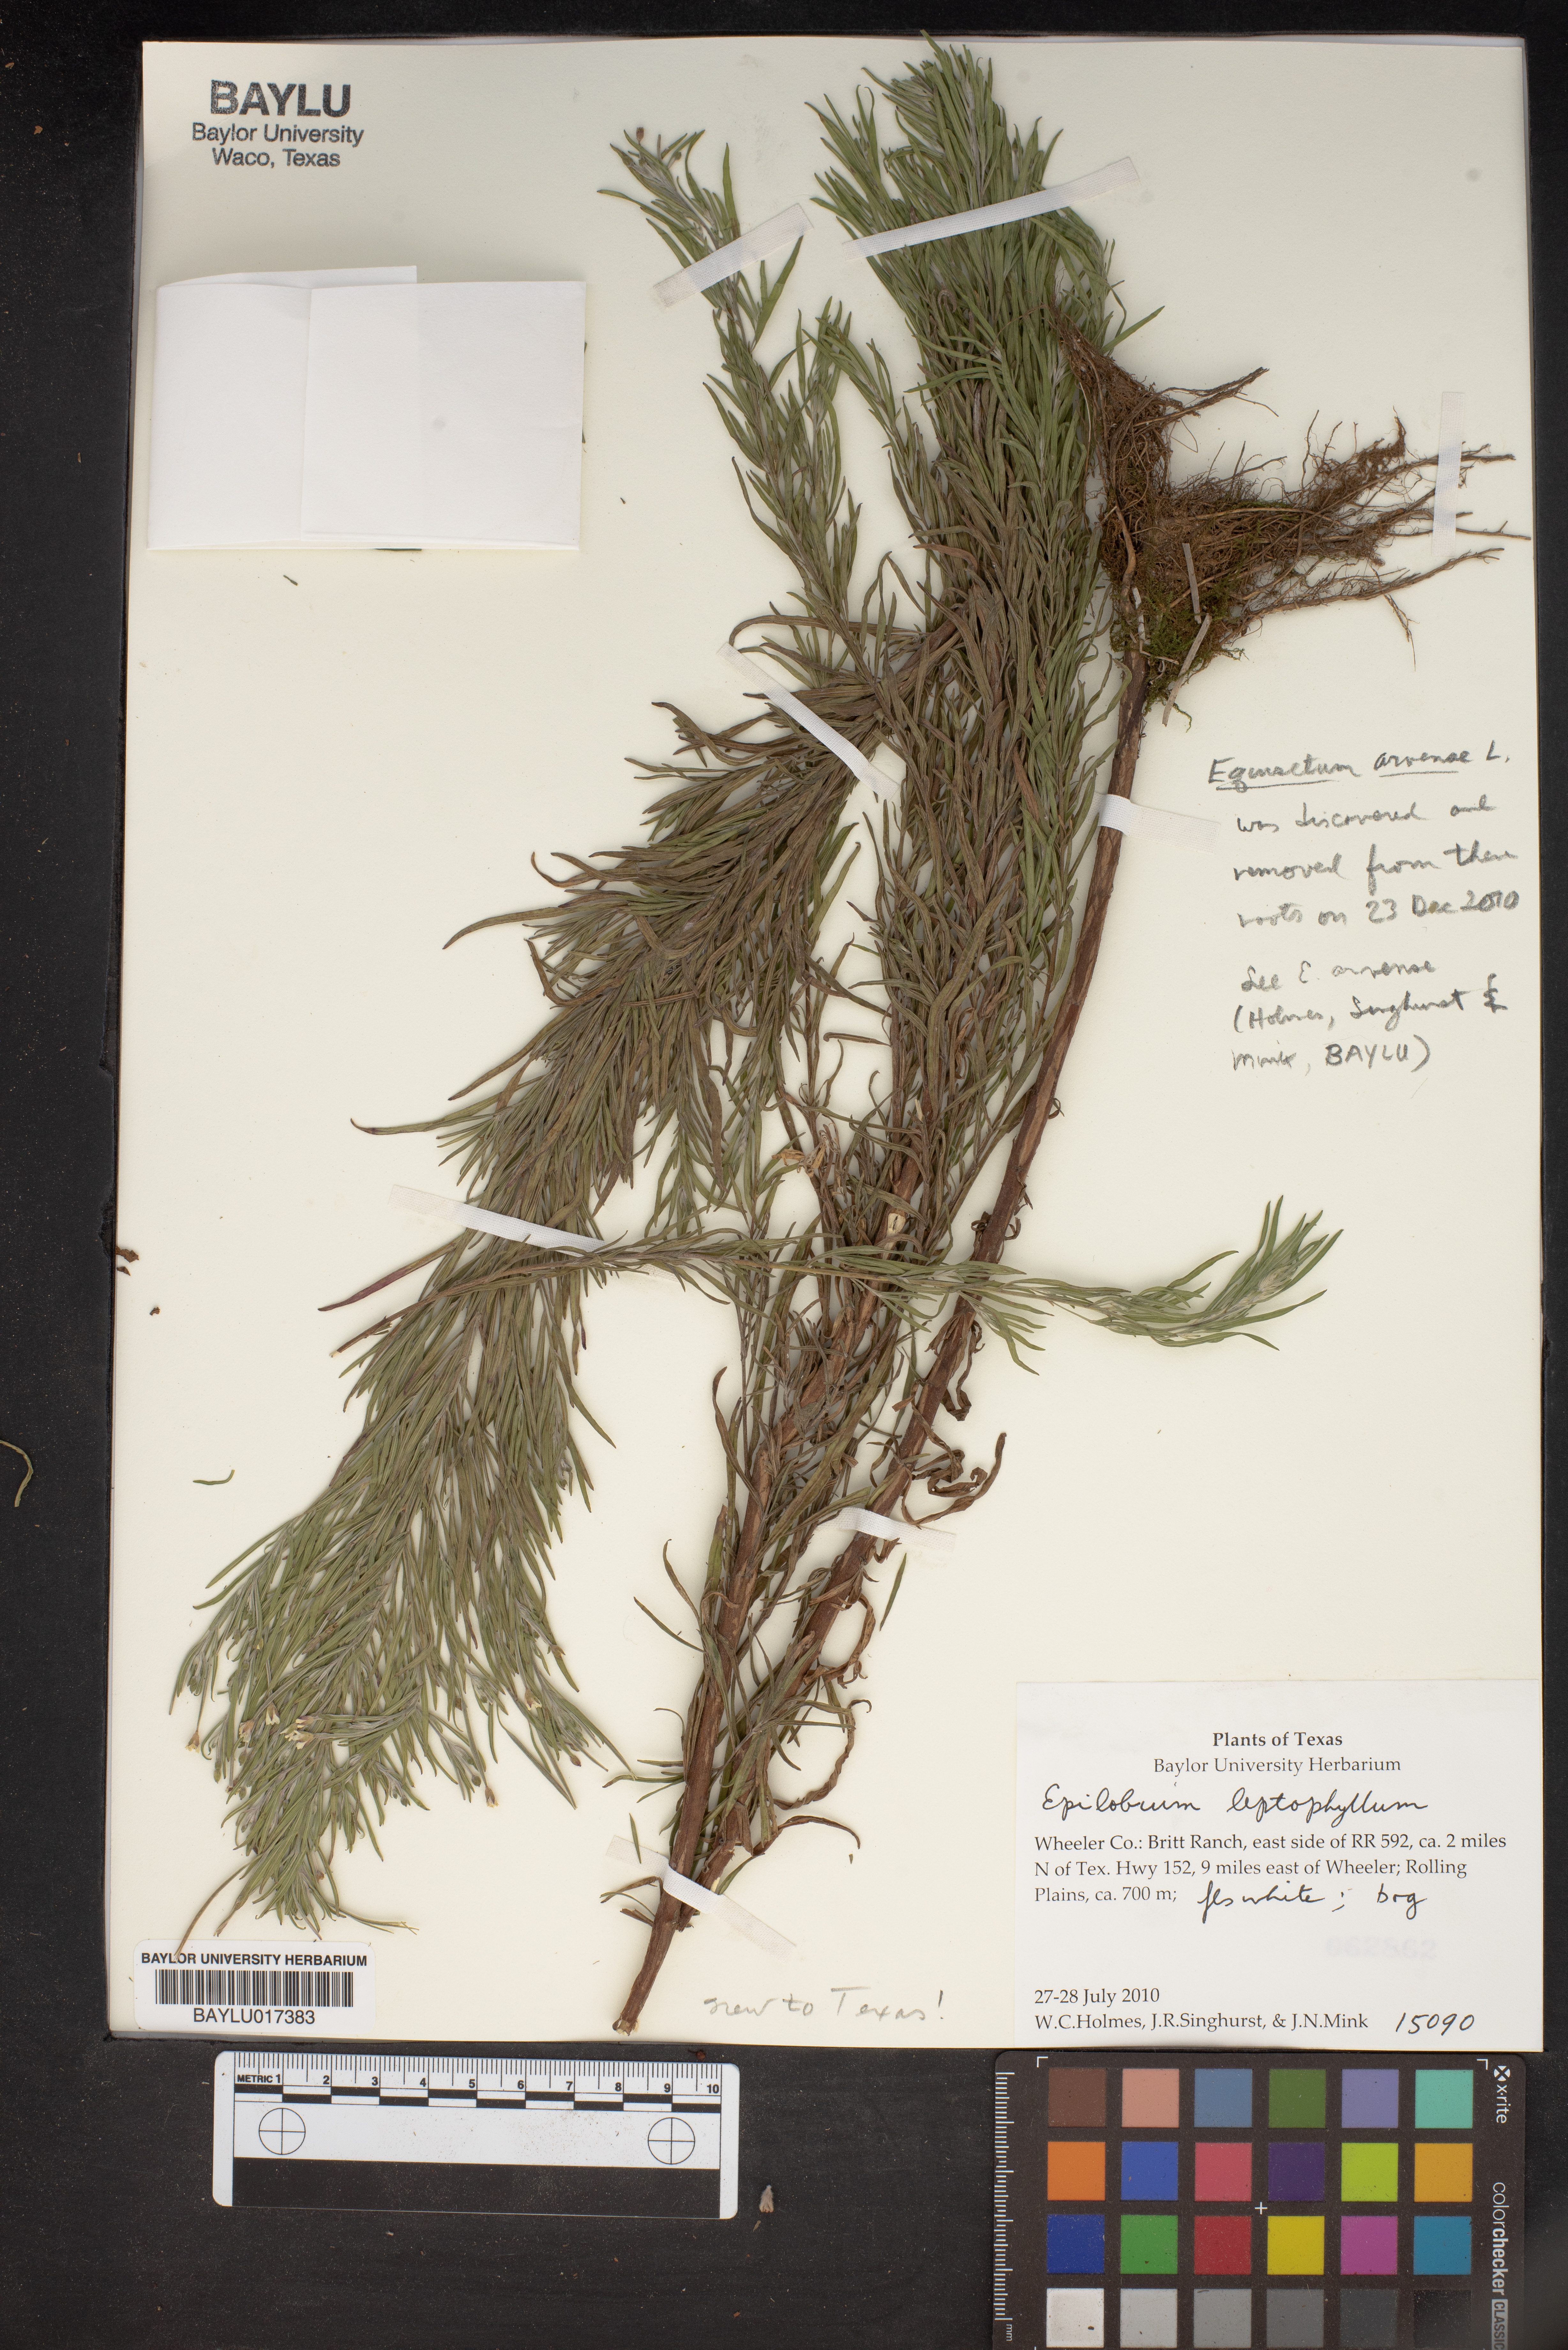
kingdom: Plantae
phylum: Tracheophyta
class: Magnoliopsida
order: Myrtales
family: Onagraceae
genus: Epilobium
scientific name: Epilobium leptophyllum
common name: Bog willowherb
